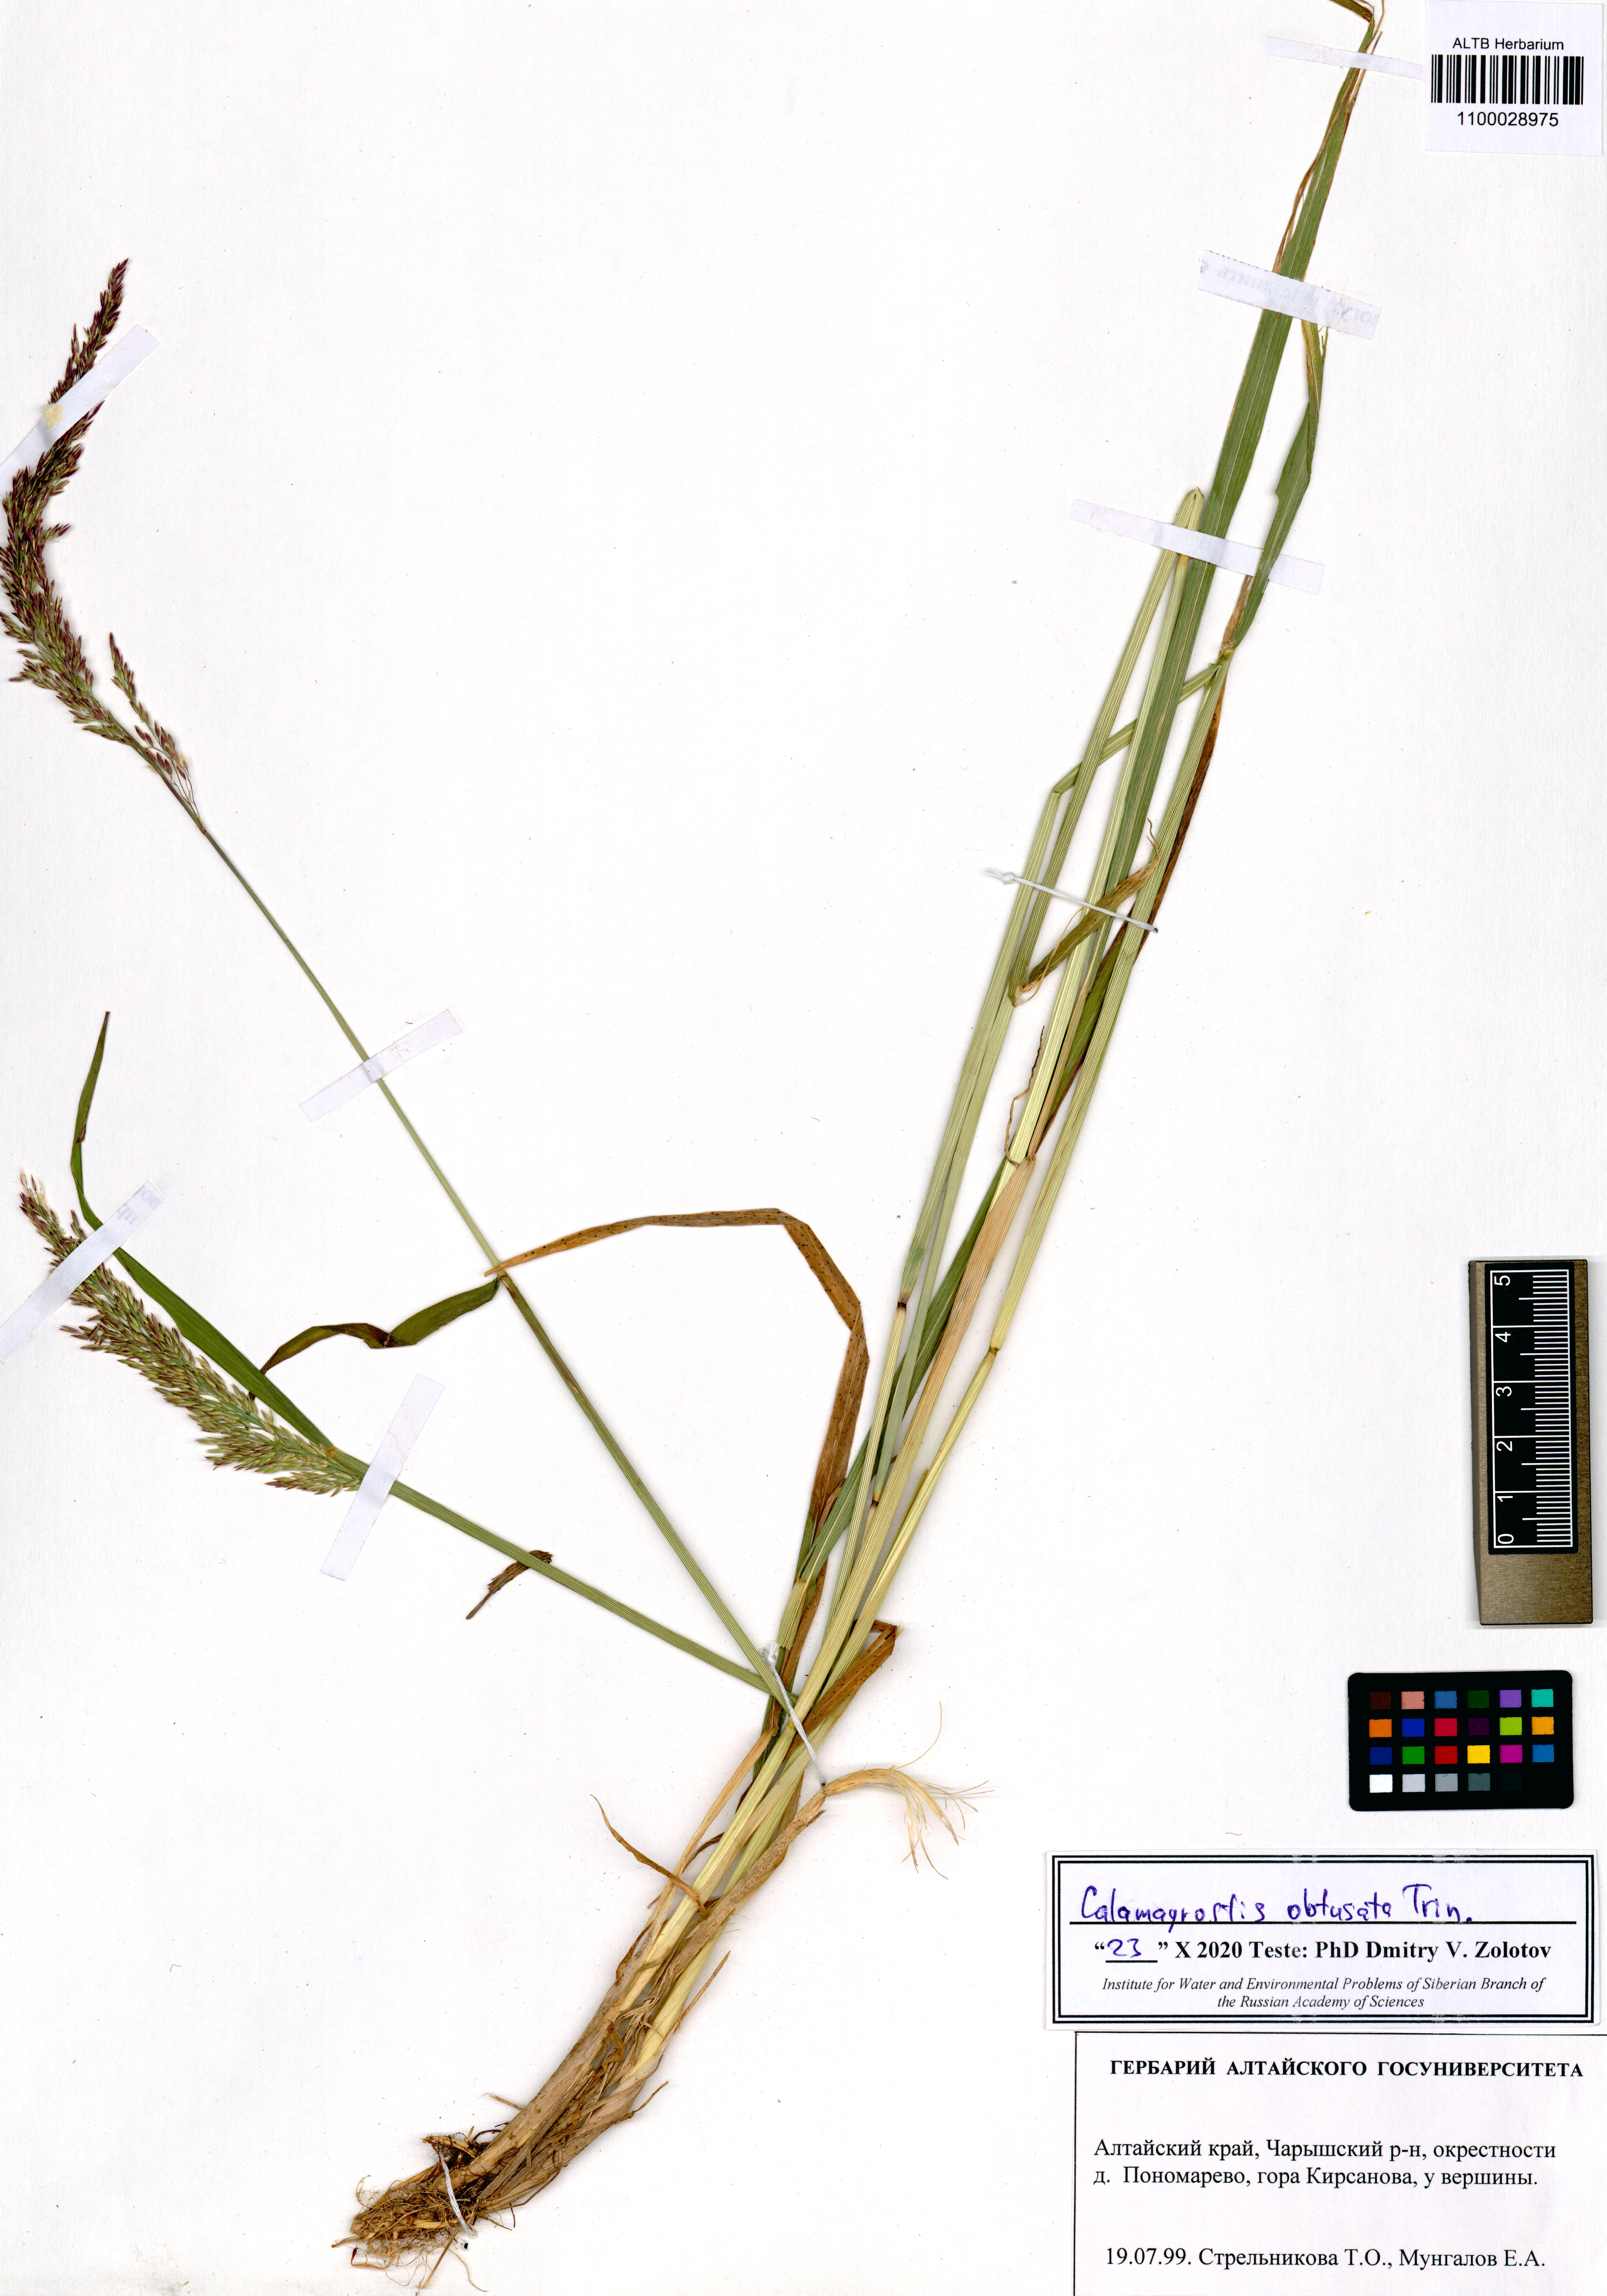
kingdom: Plantae
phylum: Tracheophyta
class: Liliopsida
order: Poales
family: Poaceae
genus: Calamagrostis
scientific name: Calamagrostis obtusata
